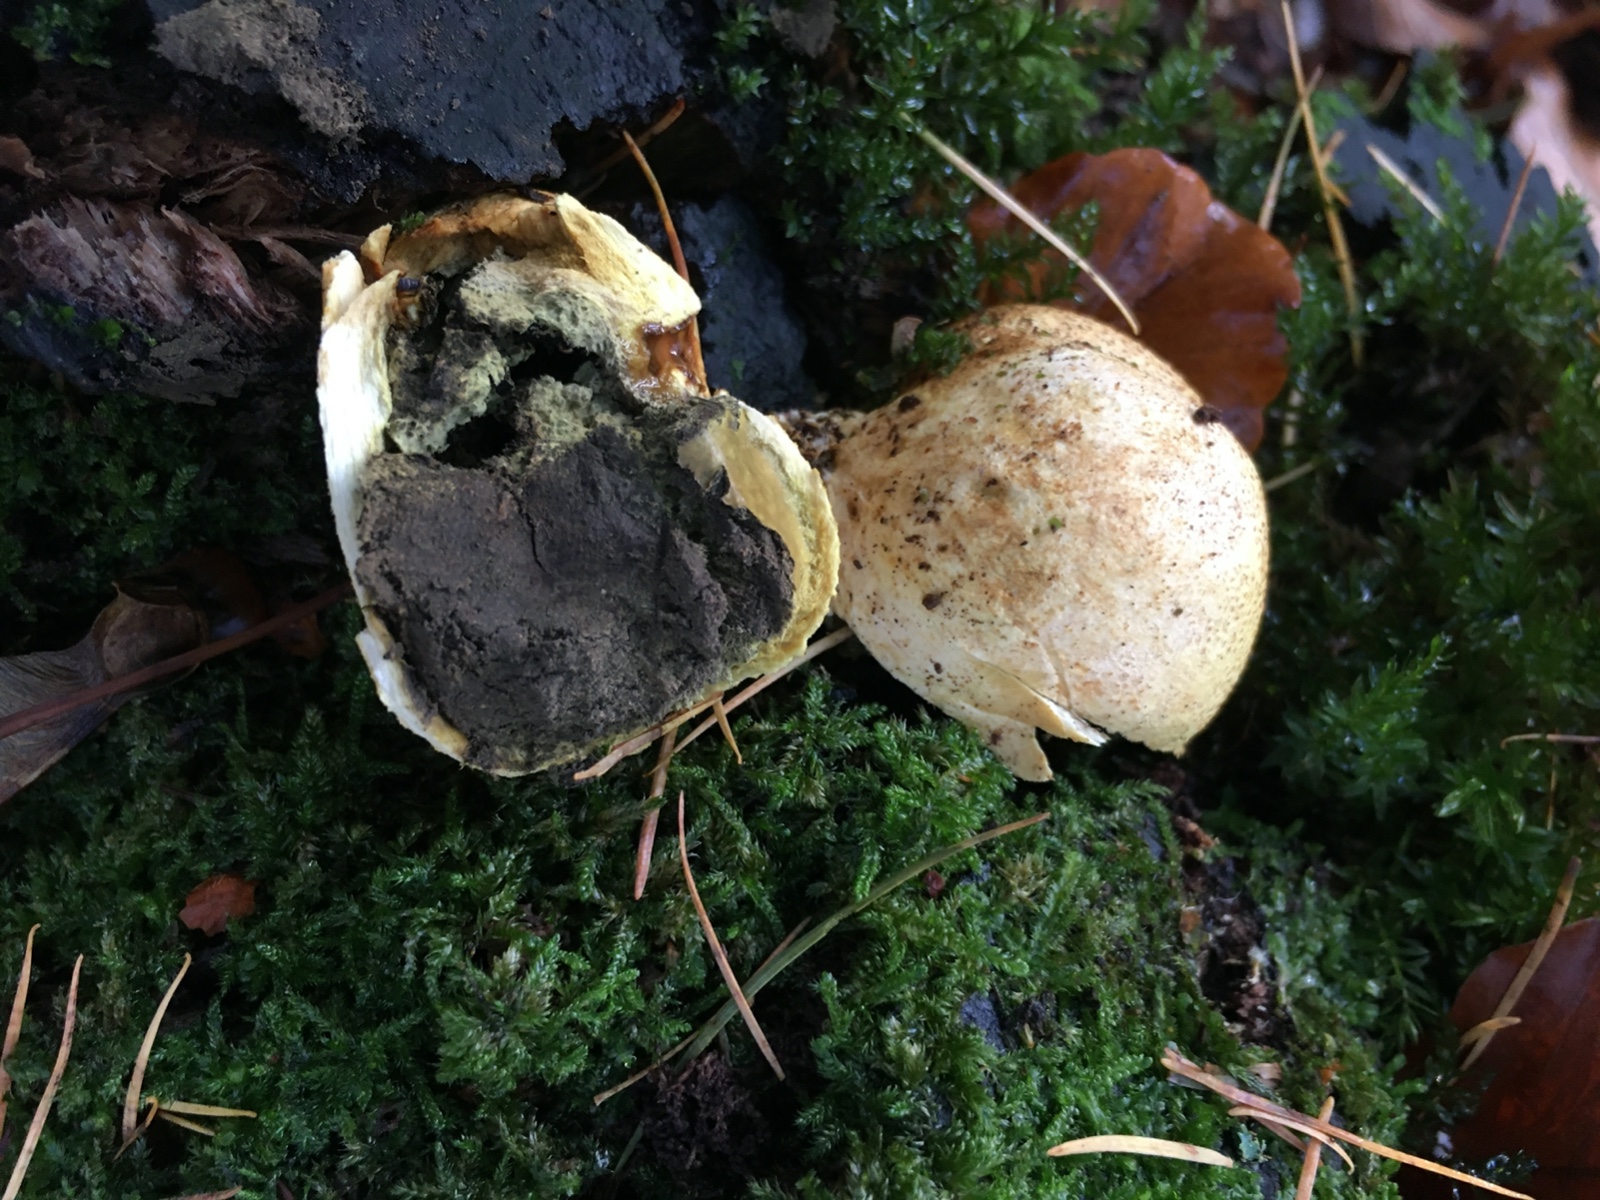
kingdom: Fungi
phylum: Basidiomycota
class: Agaricomycetes
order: Boletales
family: Sclerodermataceae
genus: Scleroderma
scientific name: Scleroderma citrinum
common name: almindelig bruskbold
